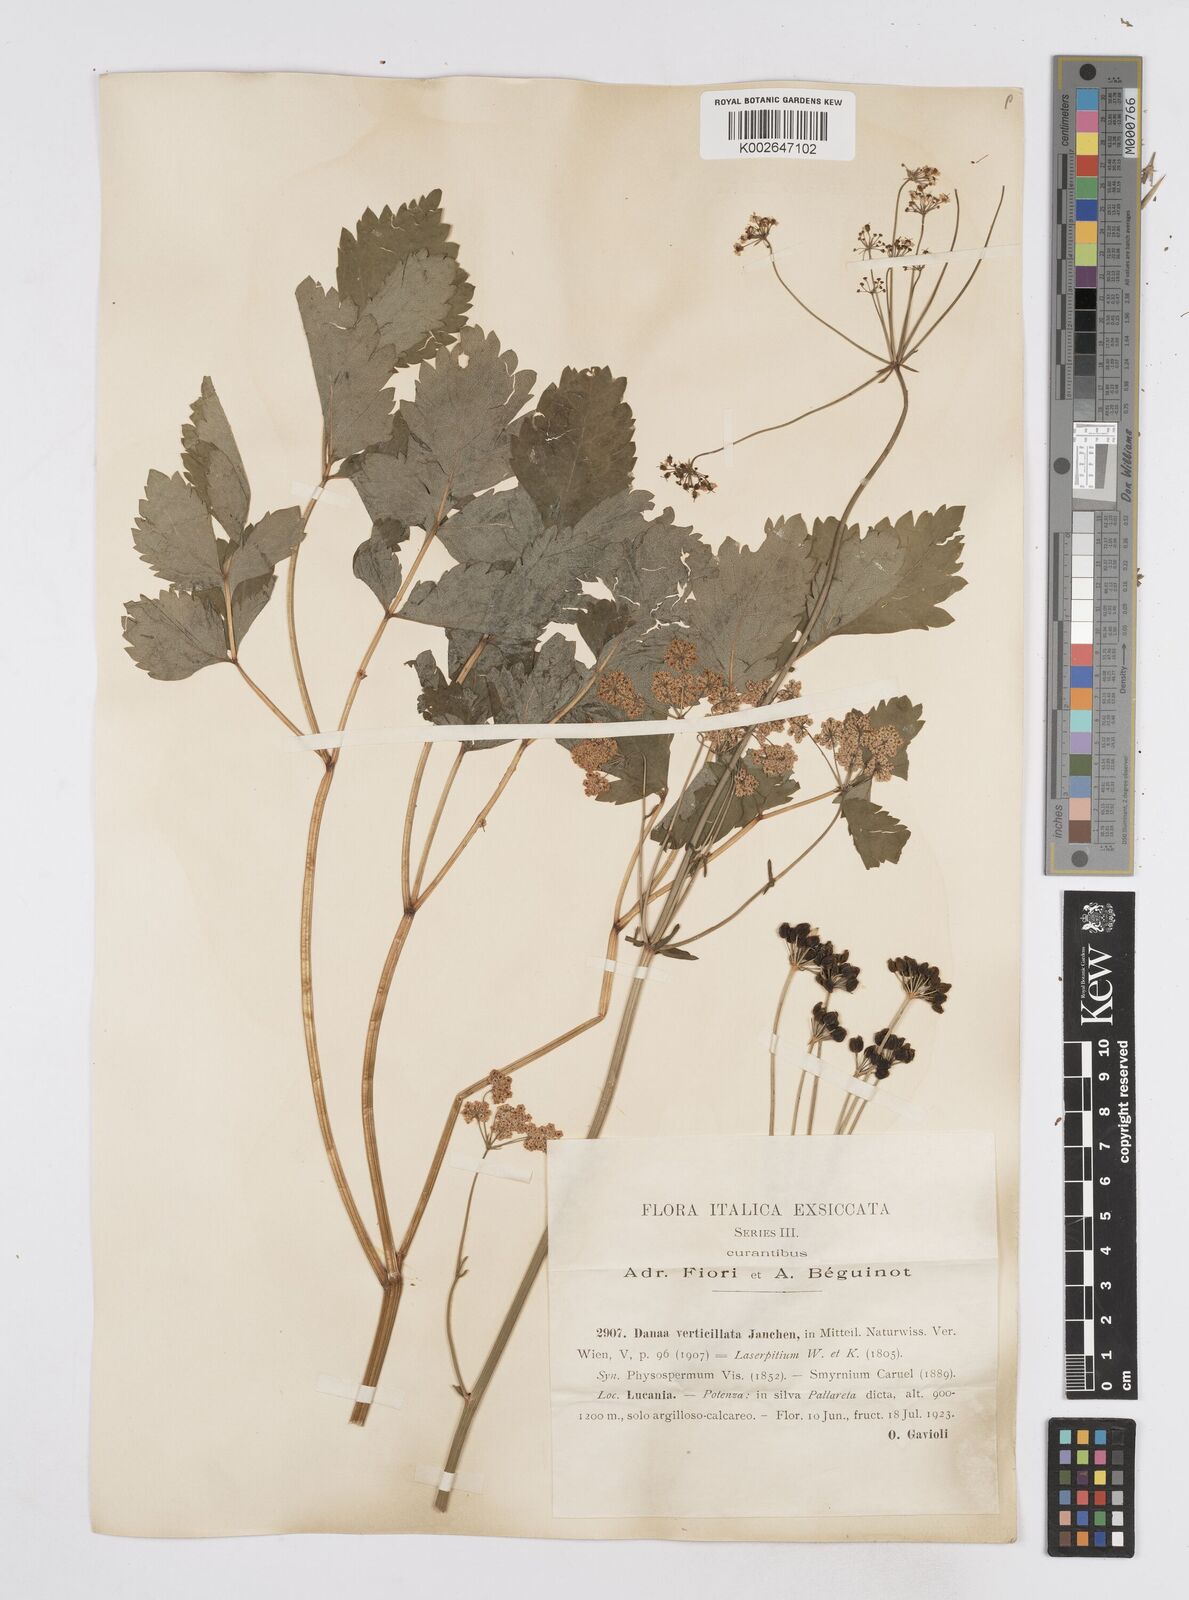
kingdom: Plantae
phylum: Tracheophyta
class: Magnoliopsida
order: Apiales
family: Apiaceae
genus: Physospermum
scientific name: Physospermum verticillatum
